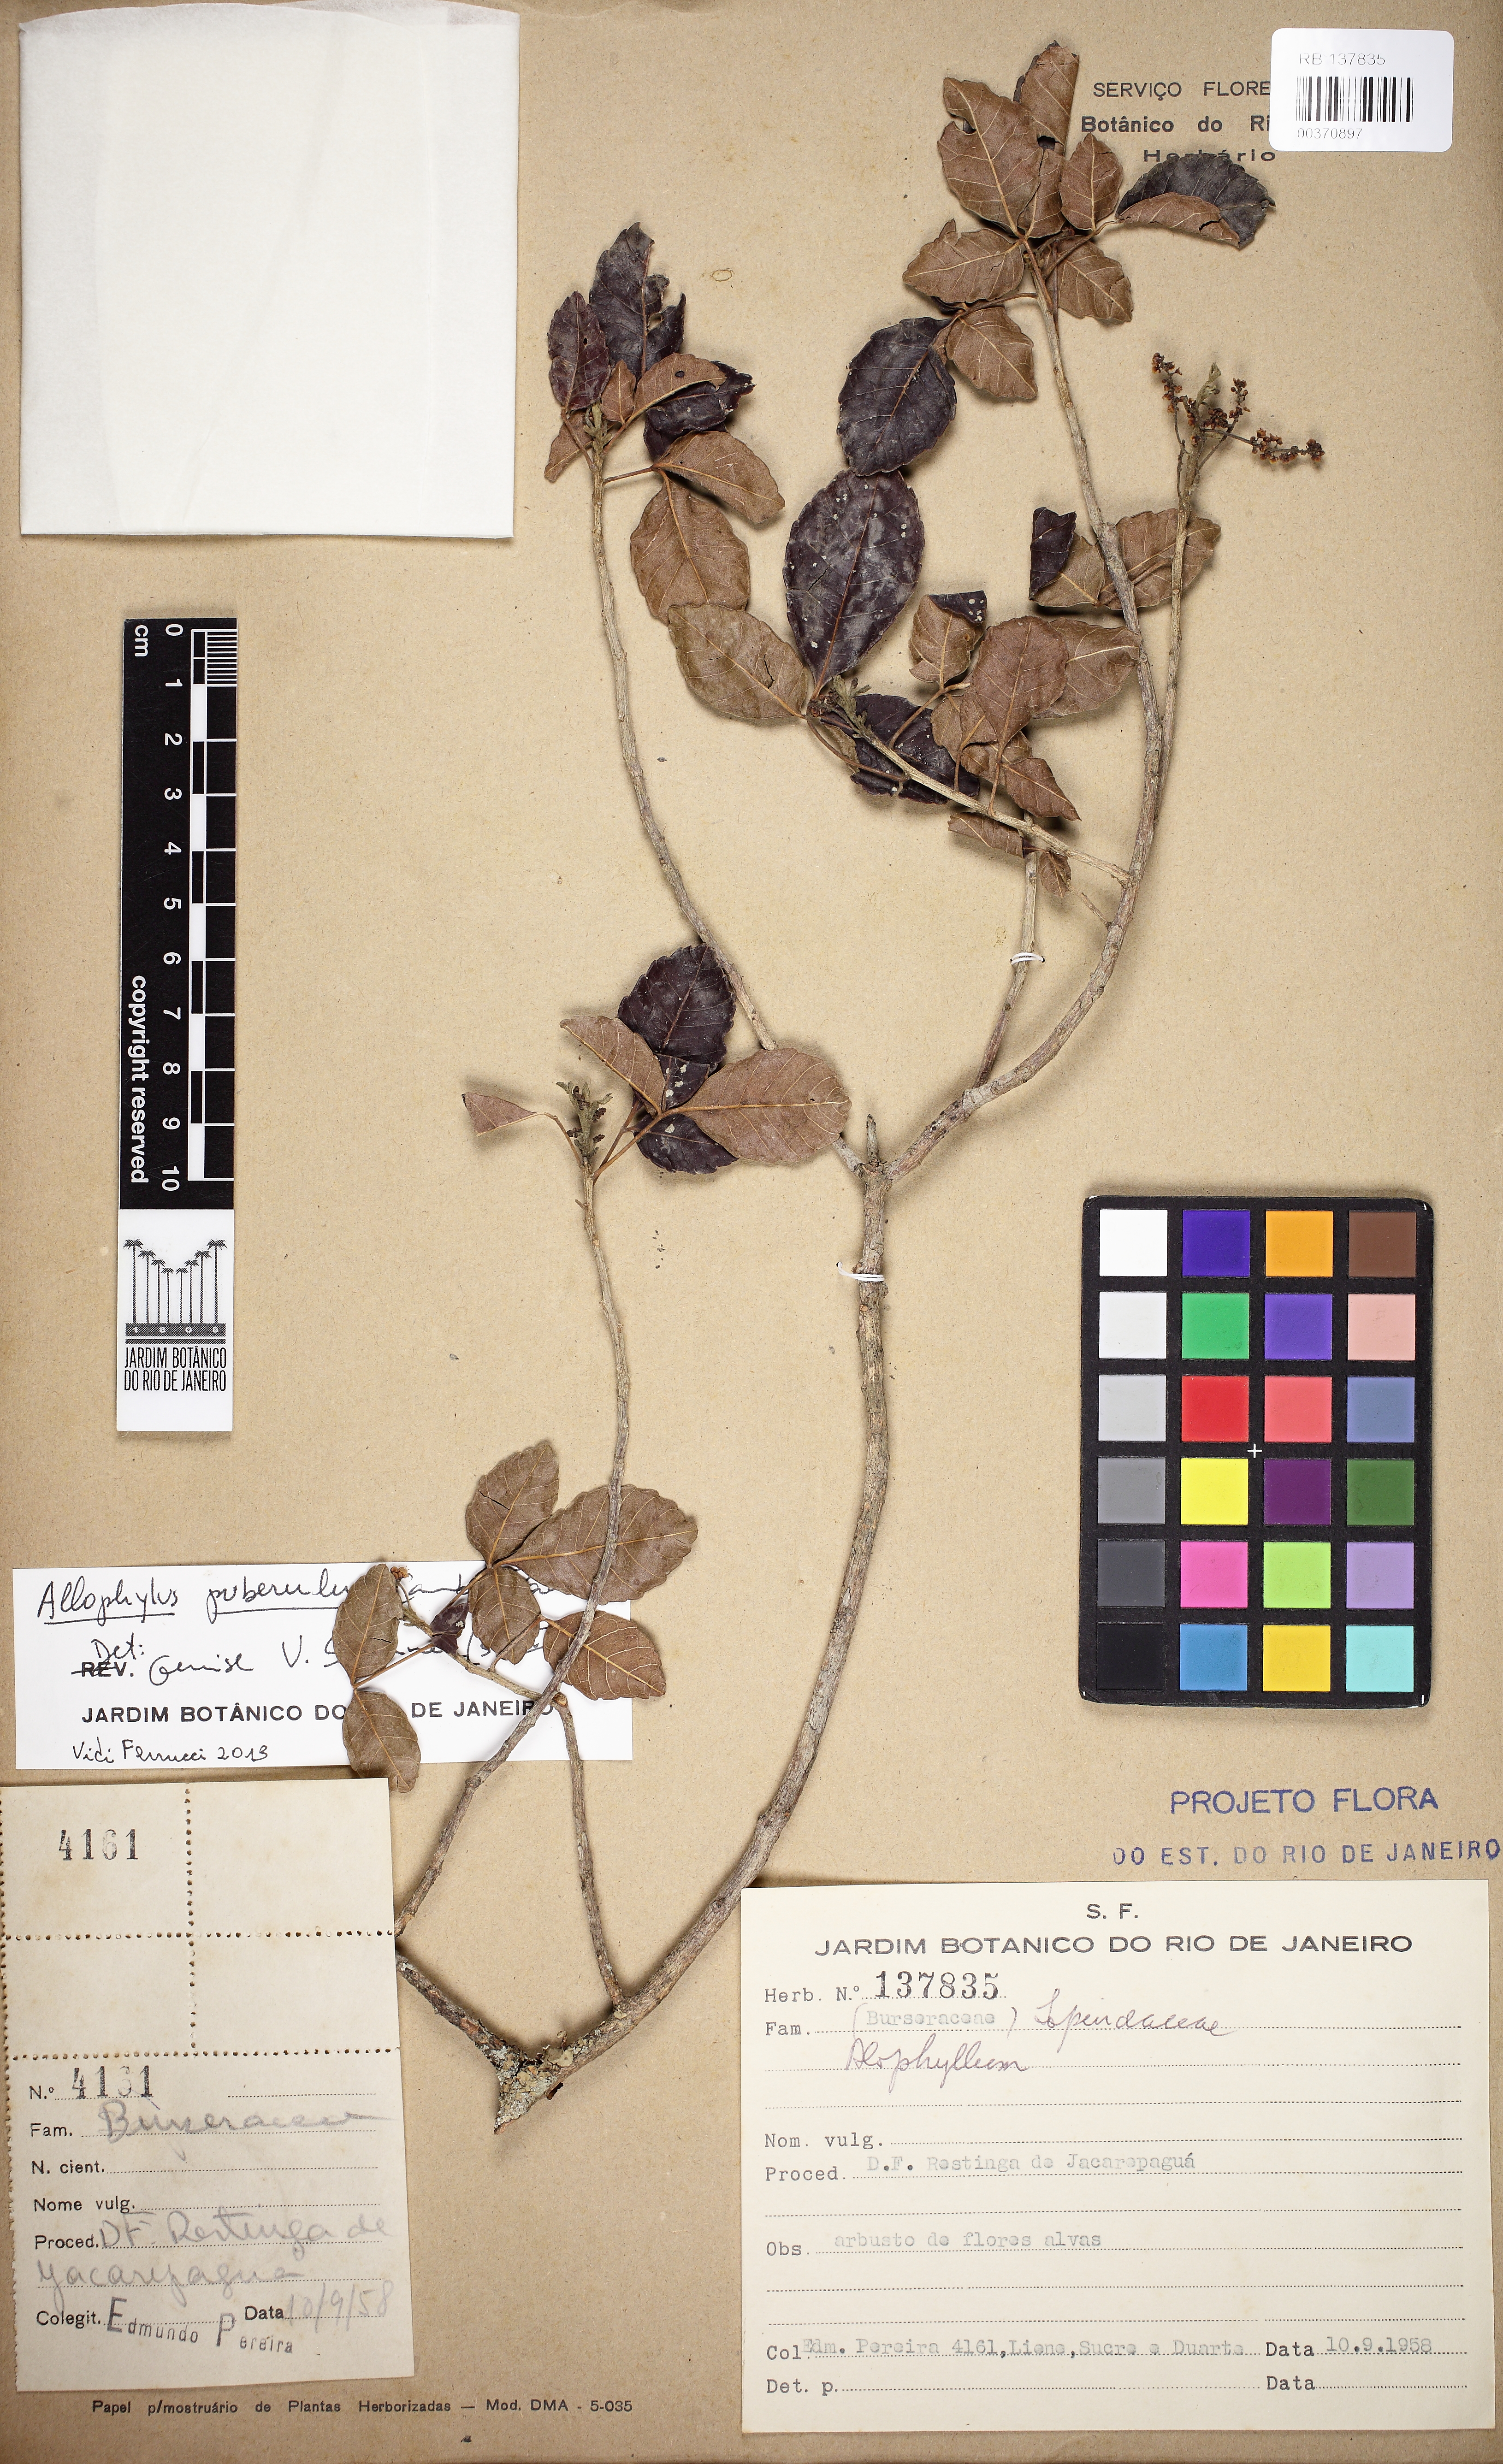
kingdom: Plantae
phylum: Tracheophyta
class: Magnoliopsida
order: Sapindales
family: Sapindaceae
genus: Allophylus
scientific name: Allophylus puberulus
